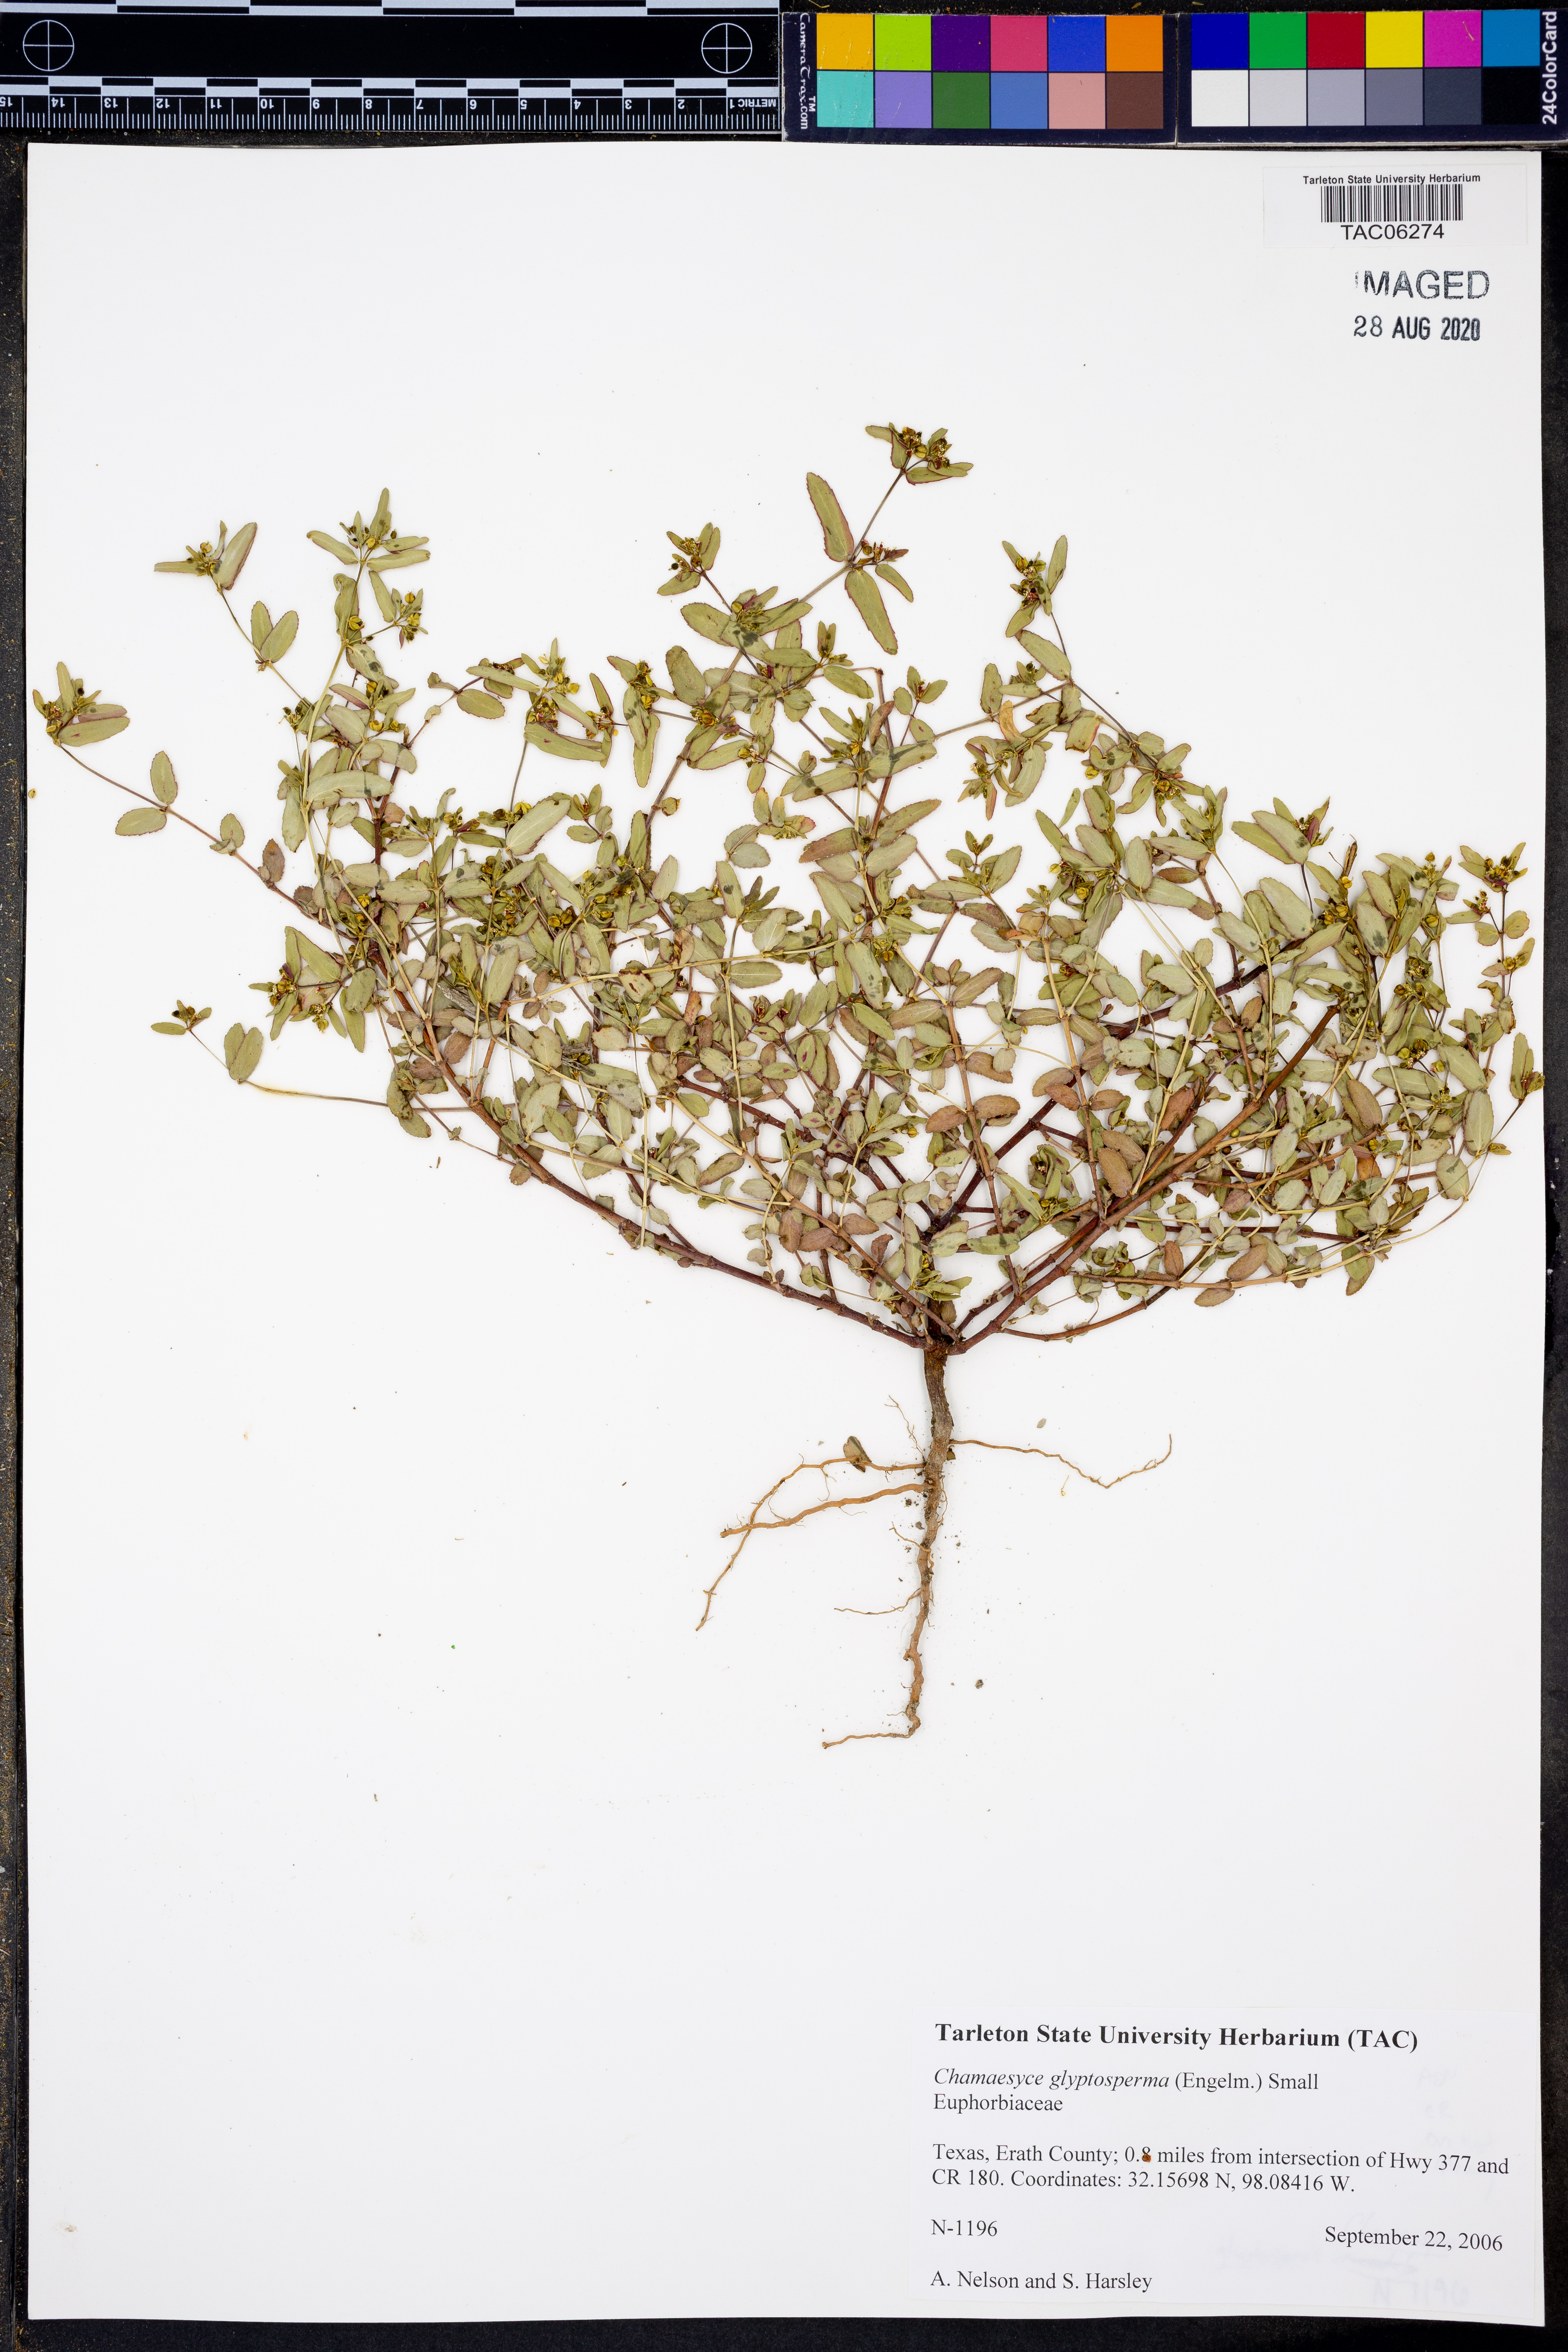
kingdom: Plantae
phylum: Tracheophyta
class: Magnoliopsida
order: Malpighiales
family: Euphorbiaceae
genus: Euphorbia
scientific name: Euphorbia glyptosperma
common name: Corrugate-seeded spurge
